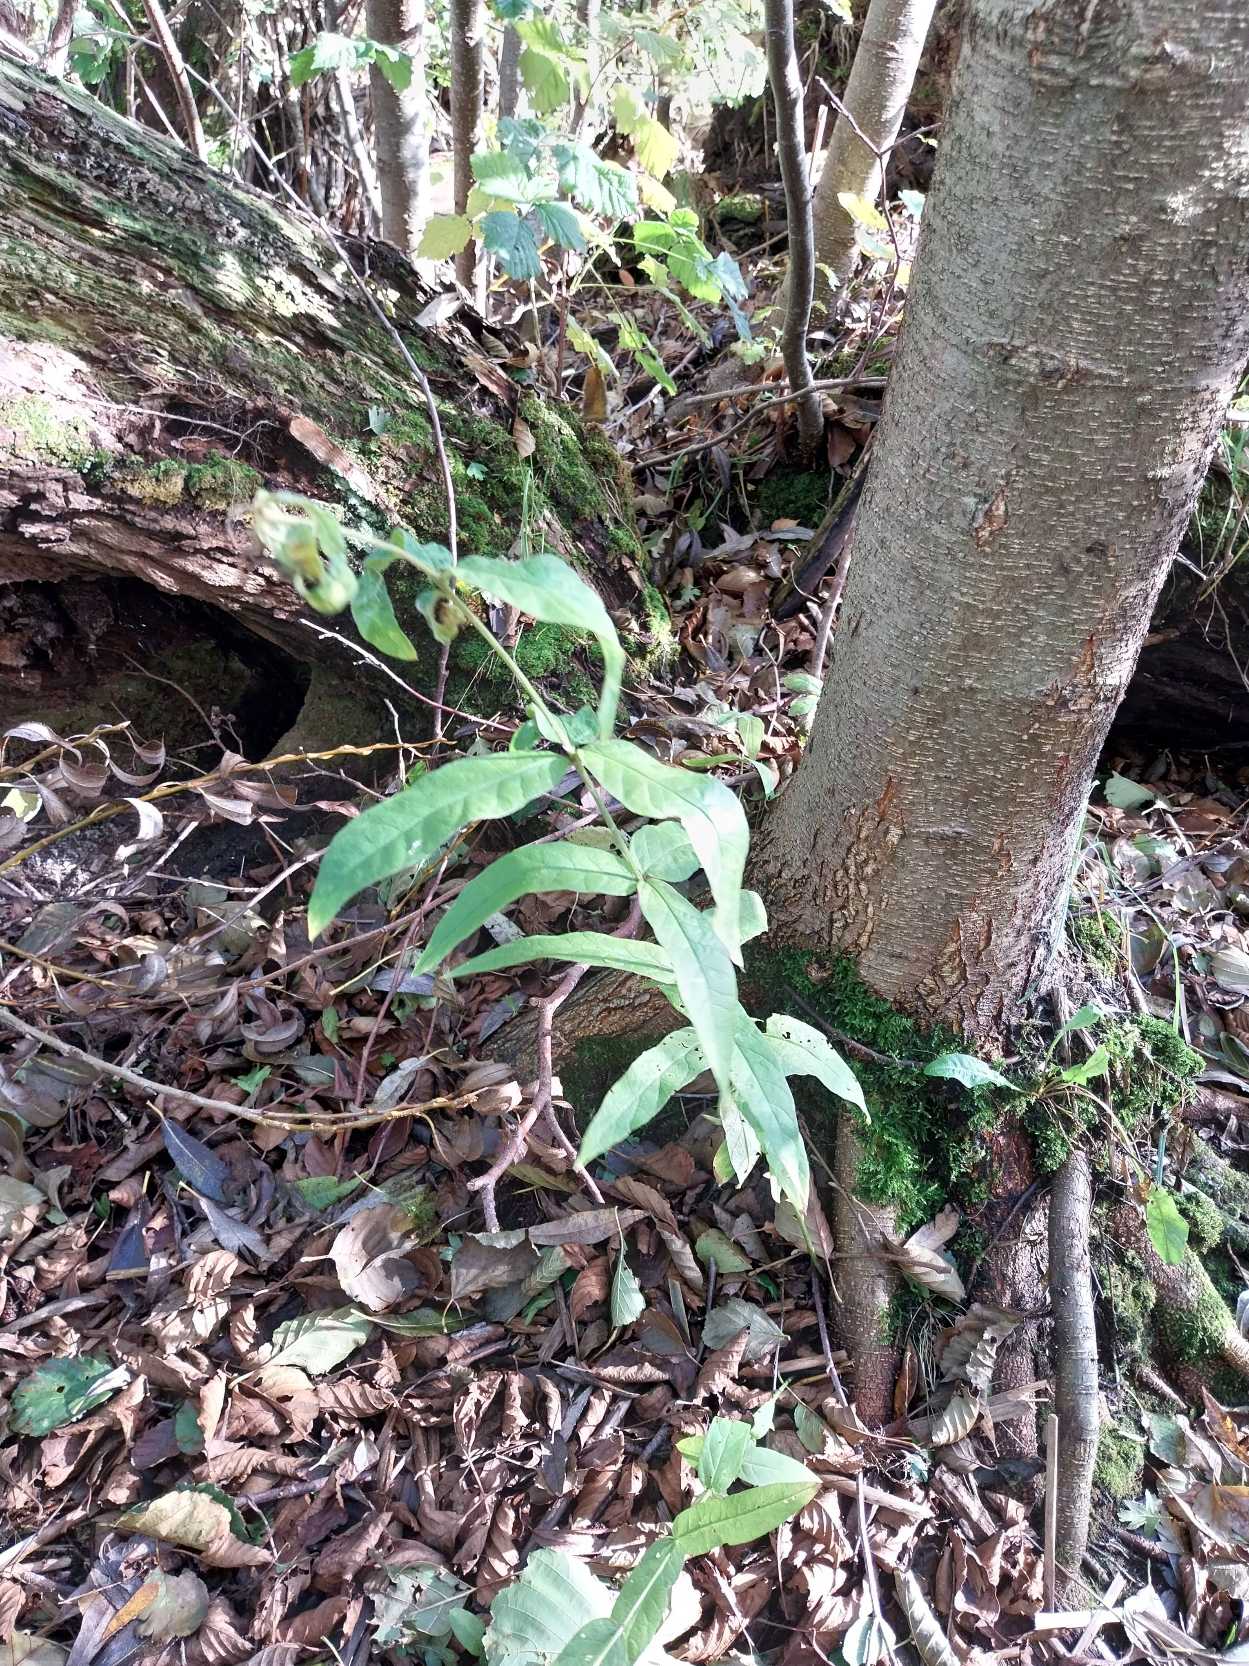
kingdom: Plantae
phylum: Tracheophyta
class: Magnoliopsida
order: Ericales
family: Primulaceae
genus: Lysimachia
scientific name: Lysimachia vulgaris
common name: Almindelig fredløs
